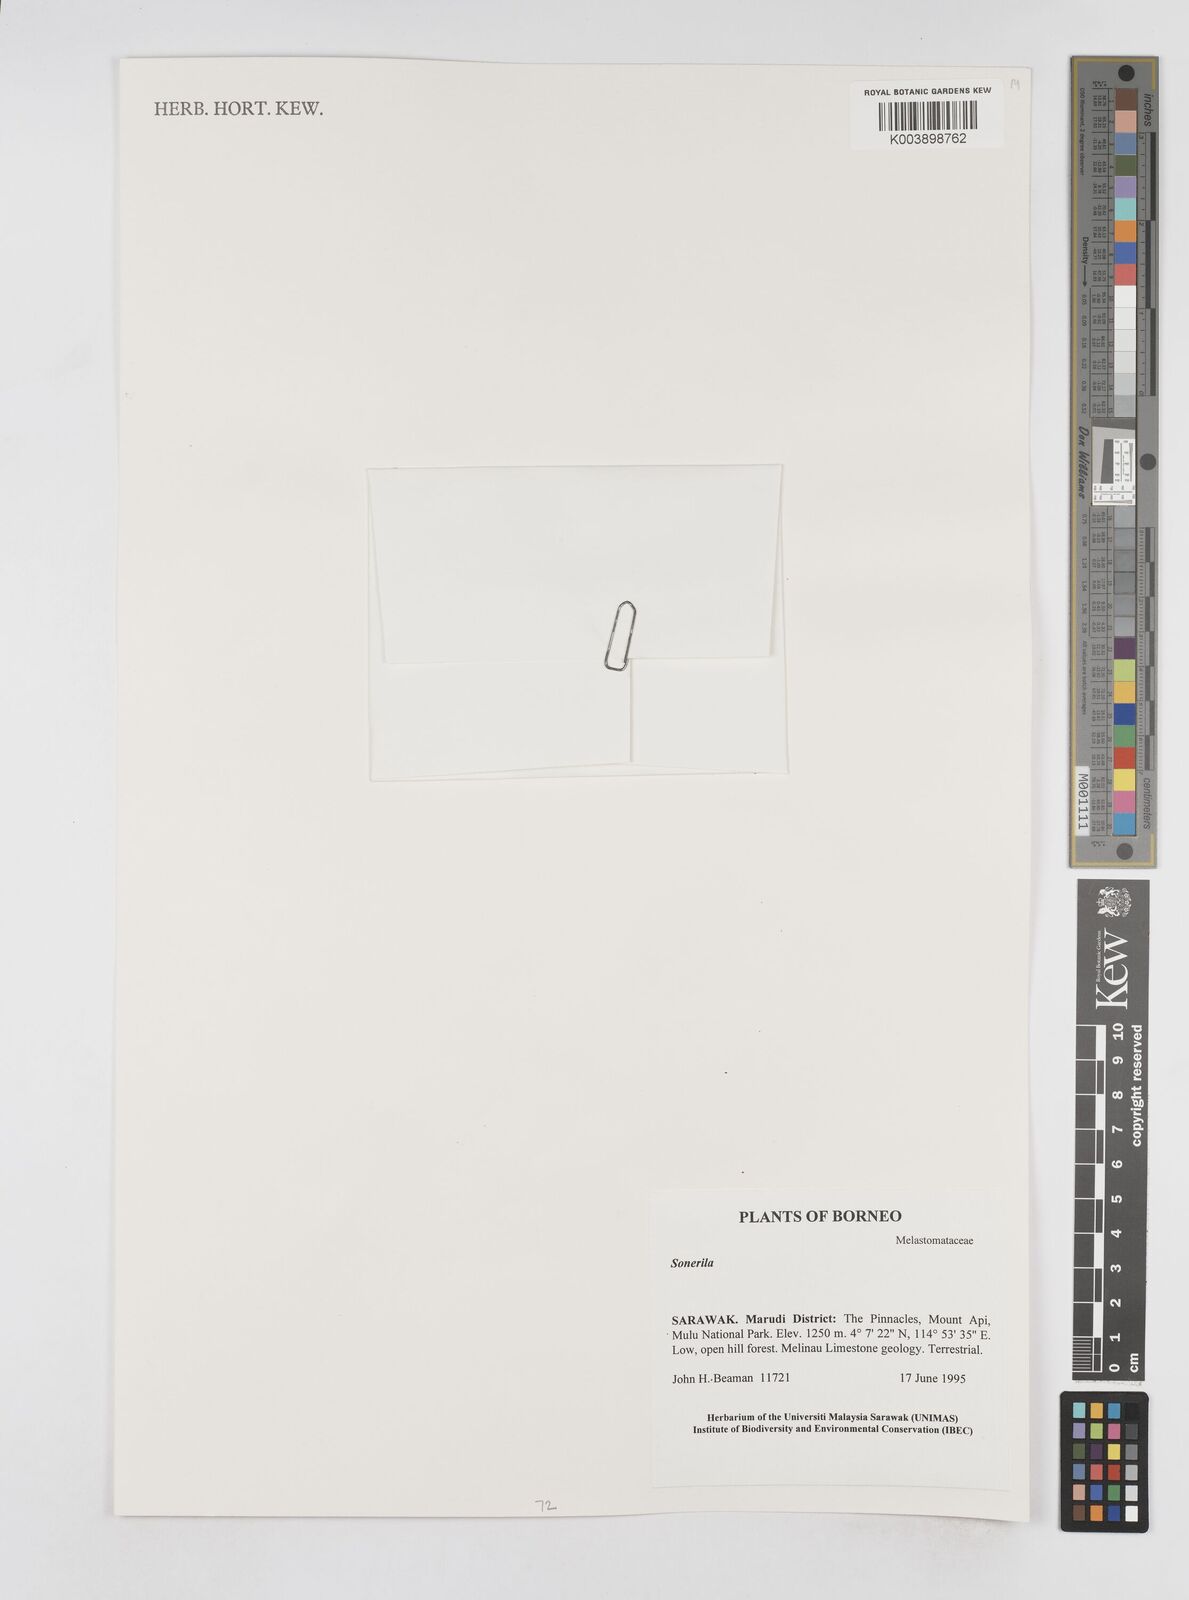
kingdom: Plantae
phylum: Tracheophyta
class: Magnoliopsida
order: Myrtales
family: Melastomataceae
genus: Sonerila
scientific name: Sonerila
